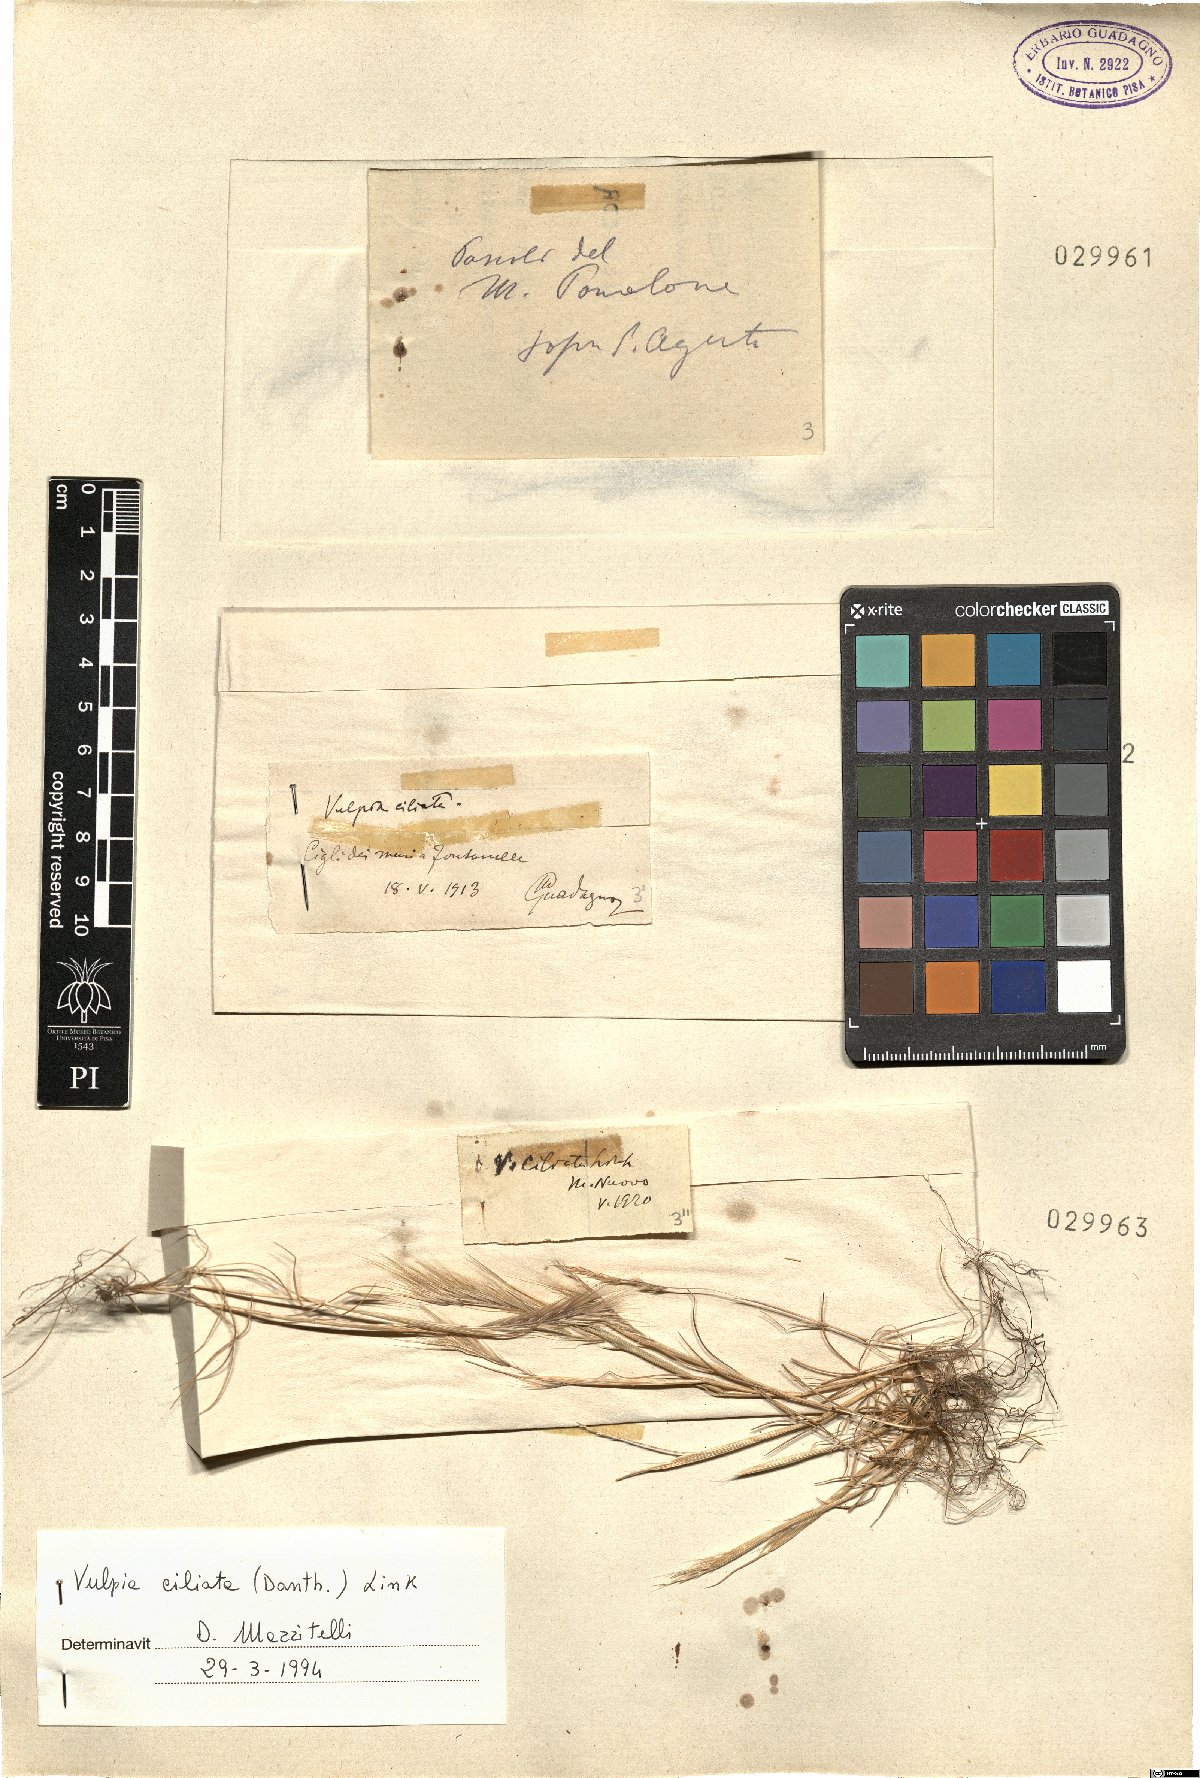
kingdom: Plantae
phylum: Tracheophyta
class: Liliopsida
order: Poales
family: Poaceae
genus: Festuca
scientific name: Festuca ambigua
